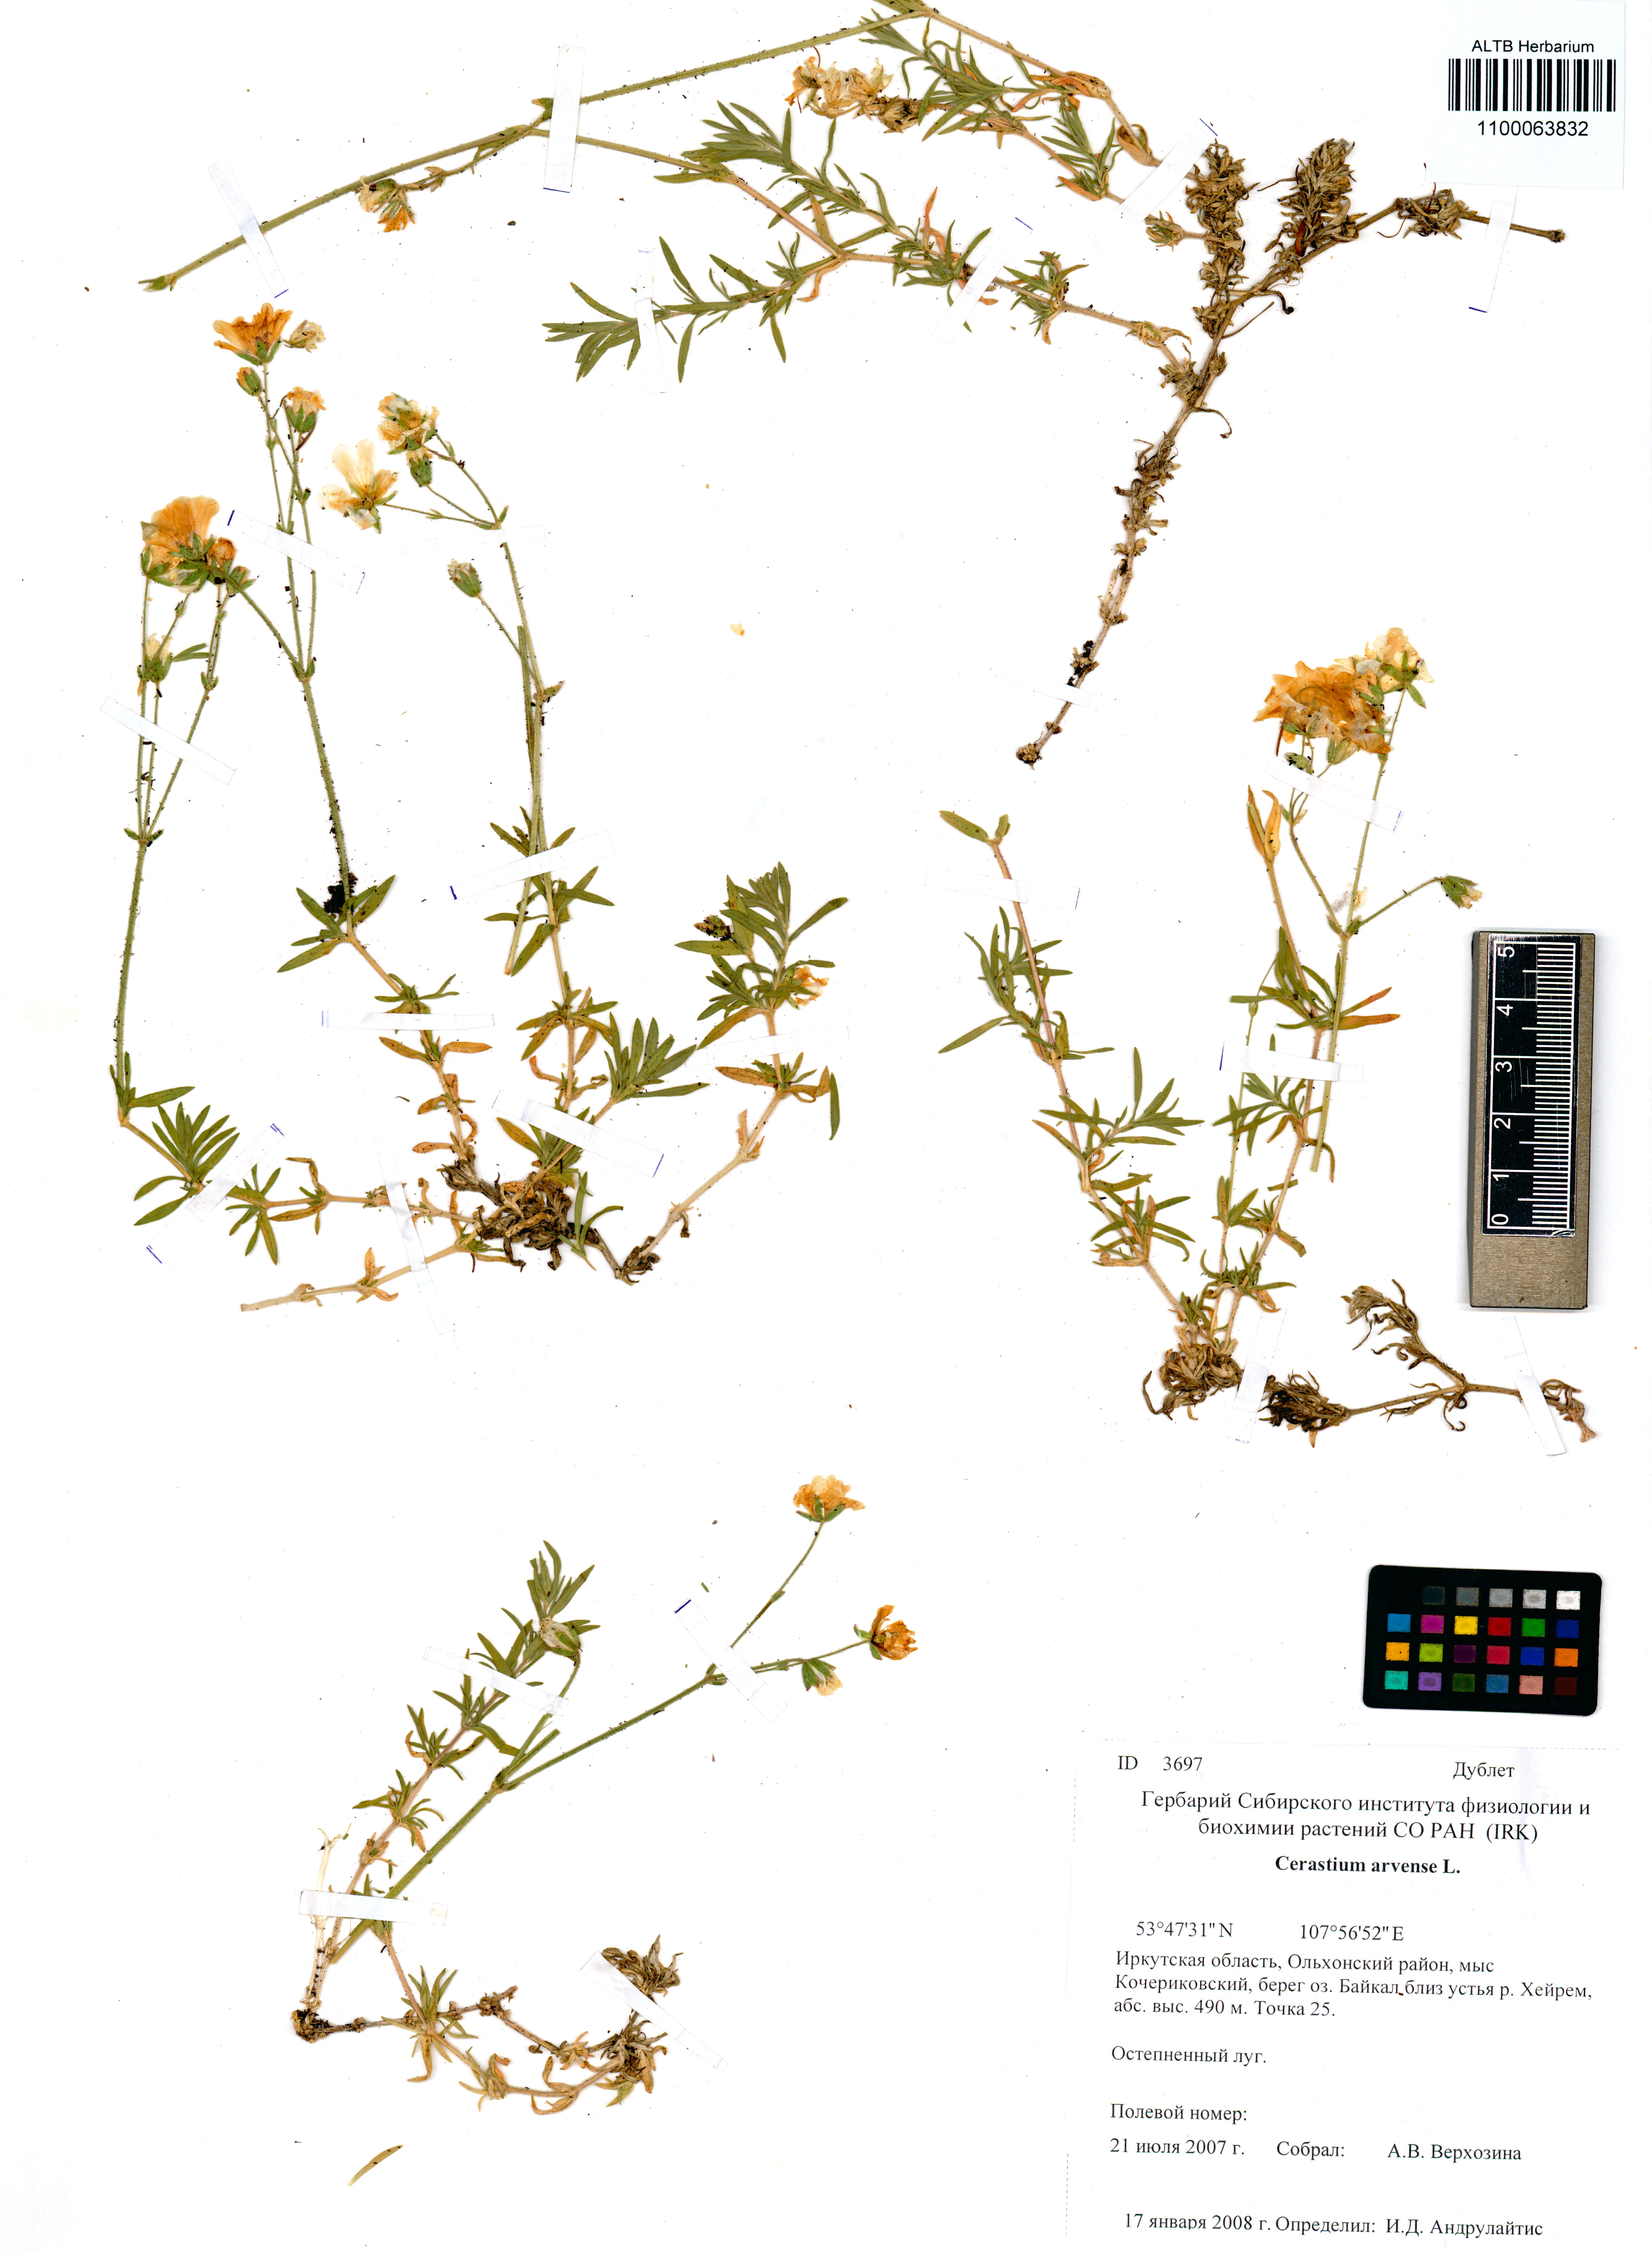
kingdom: Plantae
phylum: Tracheophyta
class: Magnoliopsida
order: Caryophyllales
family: Caryophyllaceae
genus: Cerastium
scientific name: Cerastium arvense
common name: Field mouse-ear
